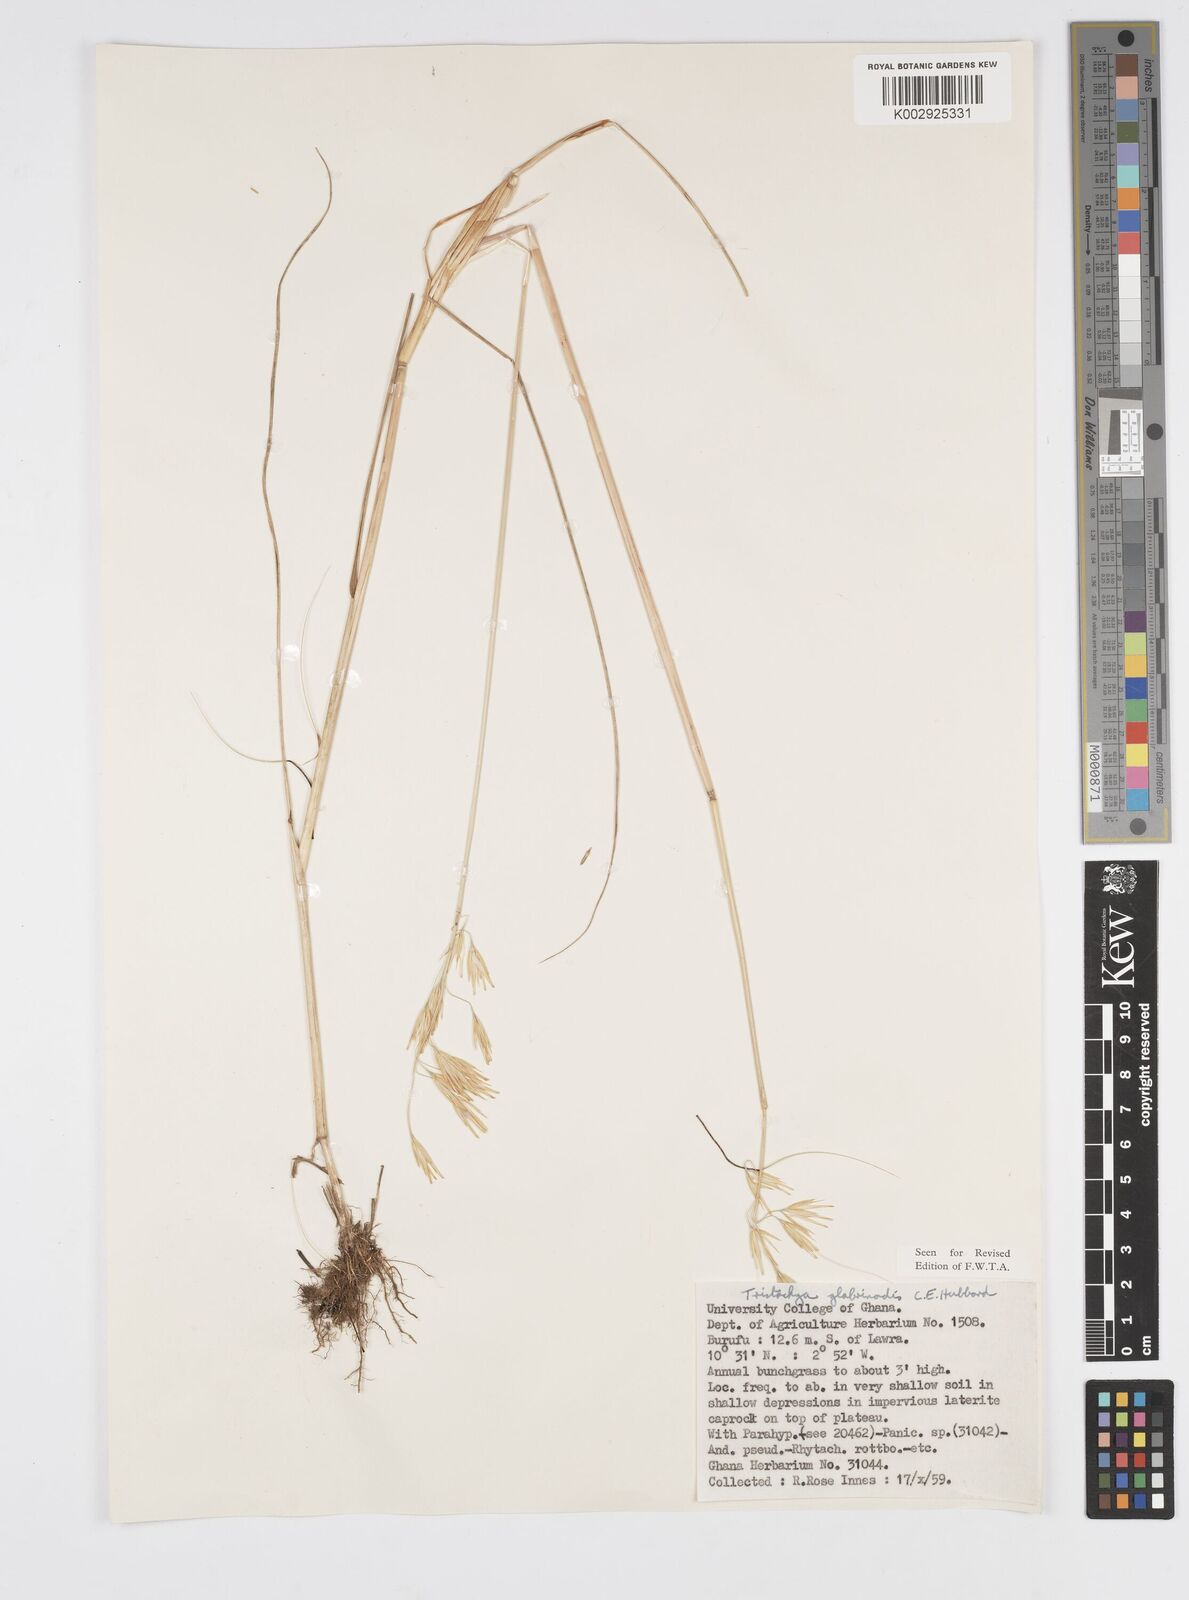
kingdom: Plantae
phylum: Tracheophyta
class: Liliopsida
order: Poales
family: Poaceae
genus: Loudetiopsis
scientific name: Loudetiopsis kerstingii
